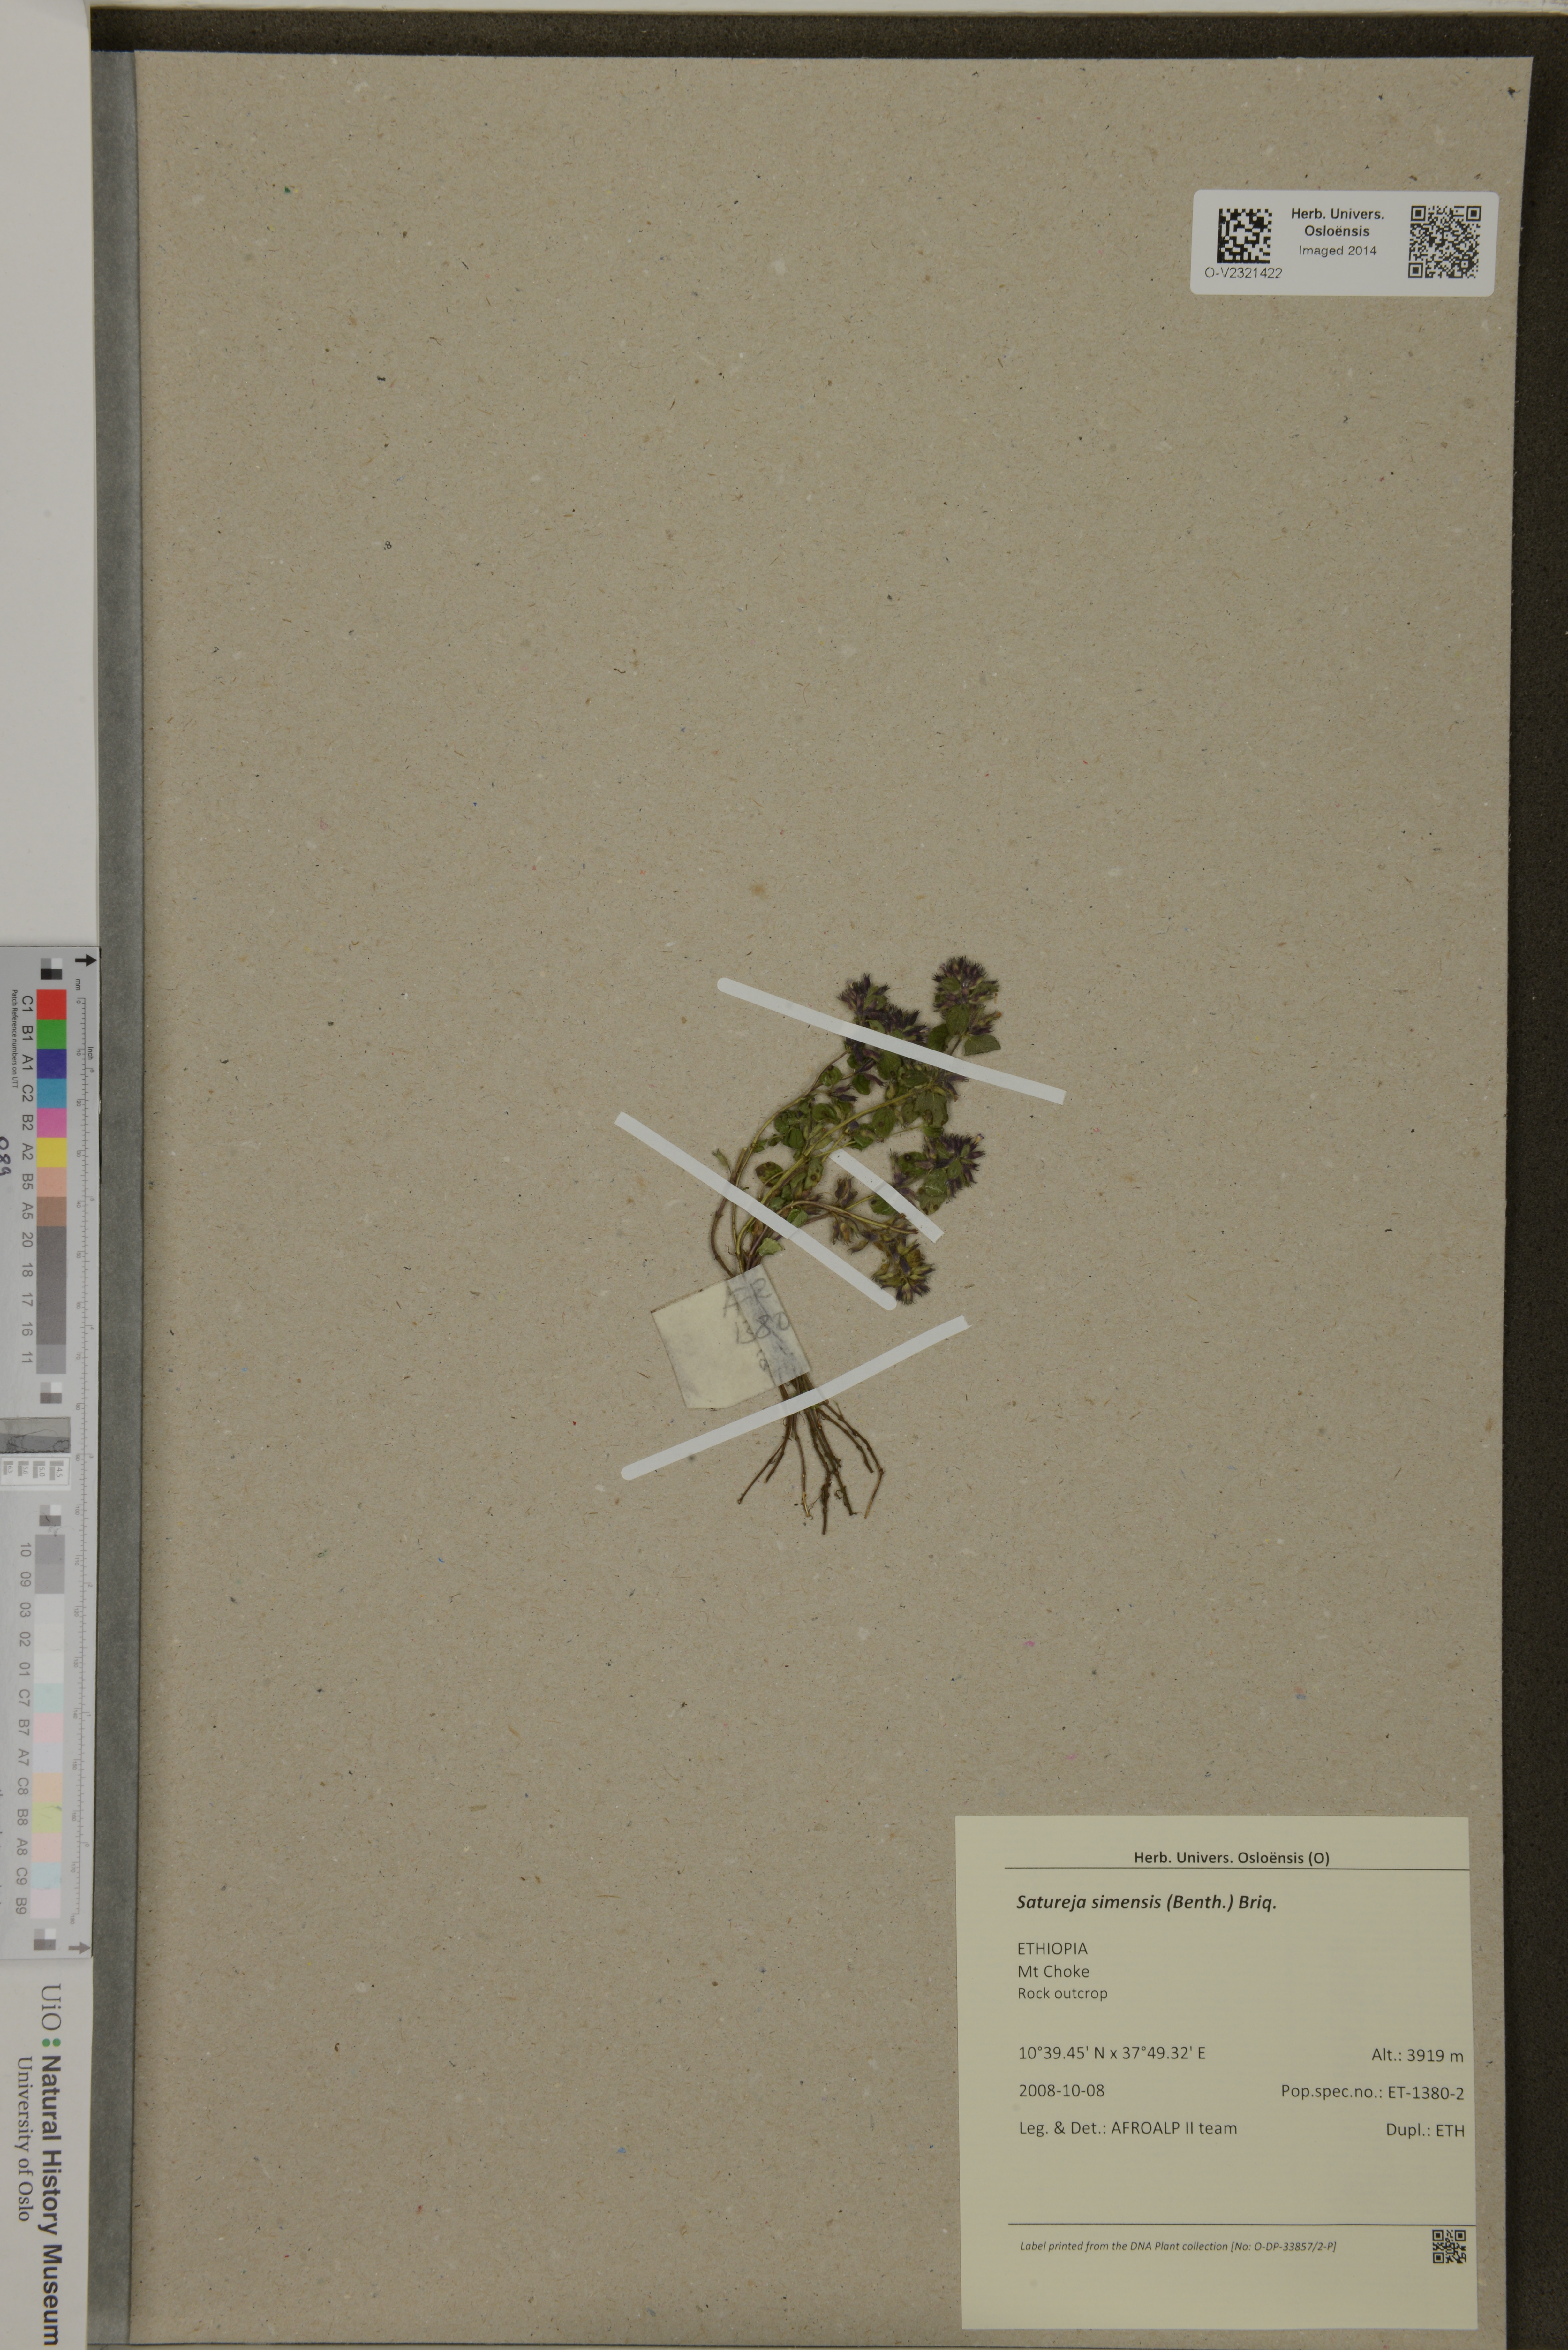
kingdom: Plantae
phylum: Tracheophyta
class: Magnoliopsida
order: Lamiales
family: Lamiaceae
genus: Clinopodium
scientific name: Clinopodium simense
